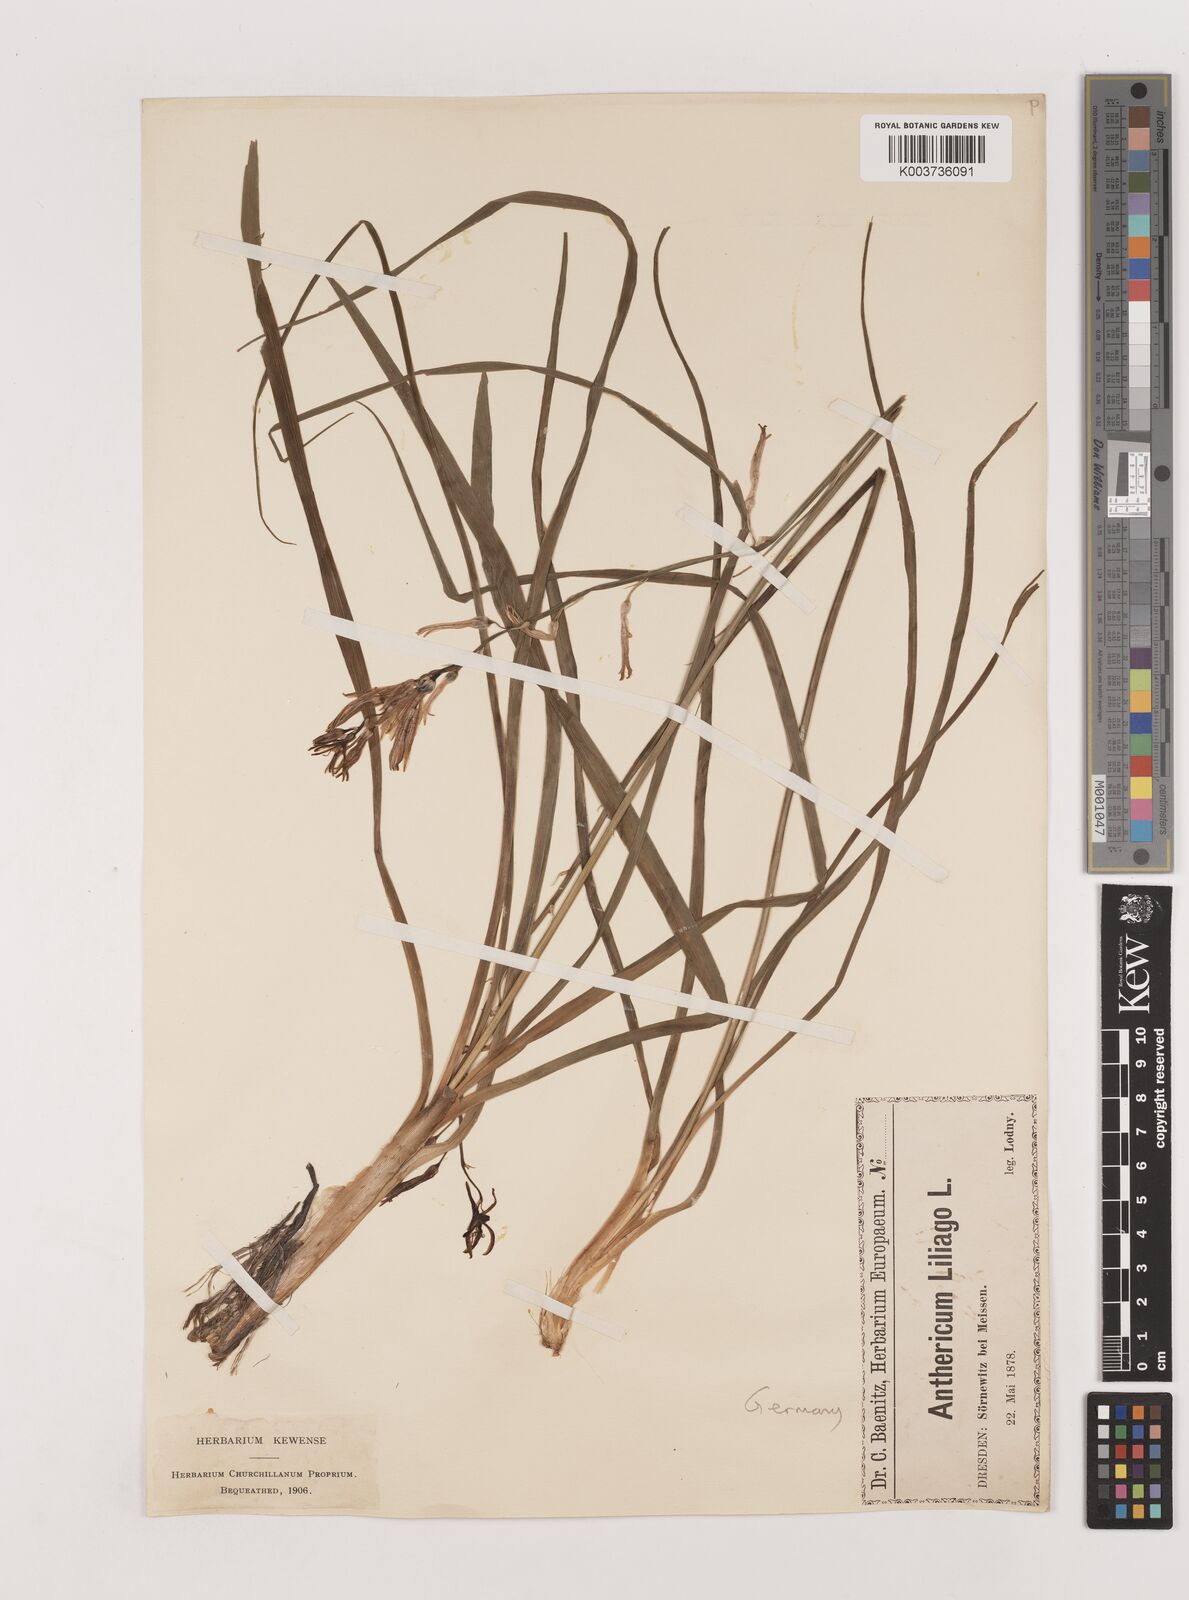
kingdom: Plantae
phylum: Tracheophyta
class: Liliopsida
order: Asparagales
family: Asparagaceae
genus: Anthericum
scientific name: Anthericum liliago
